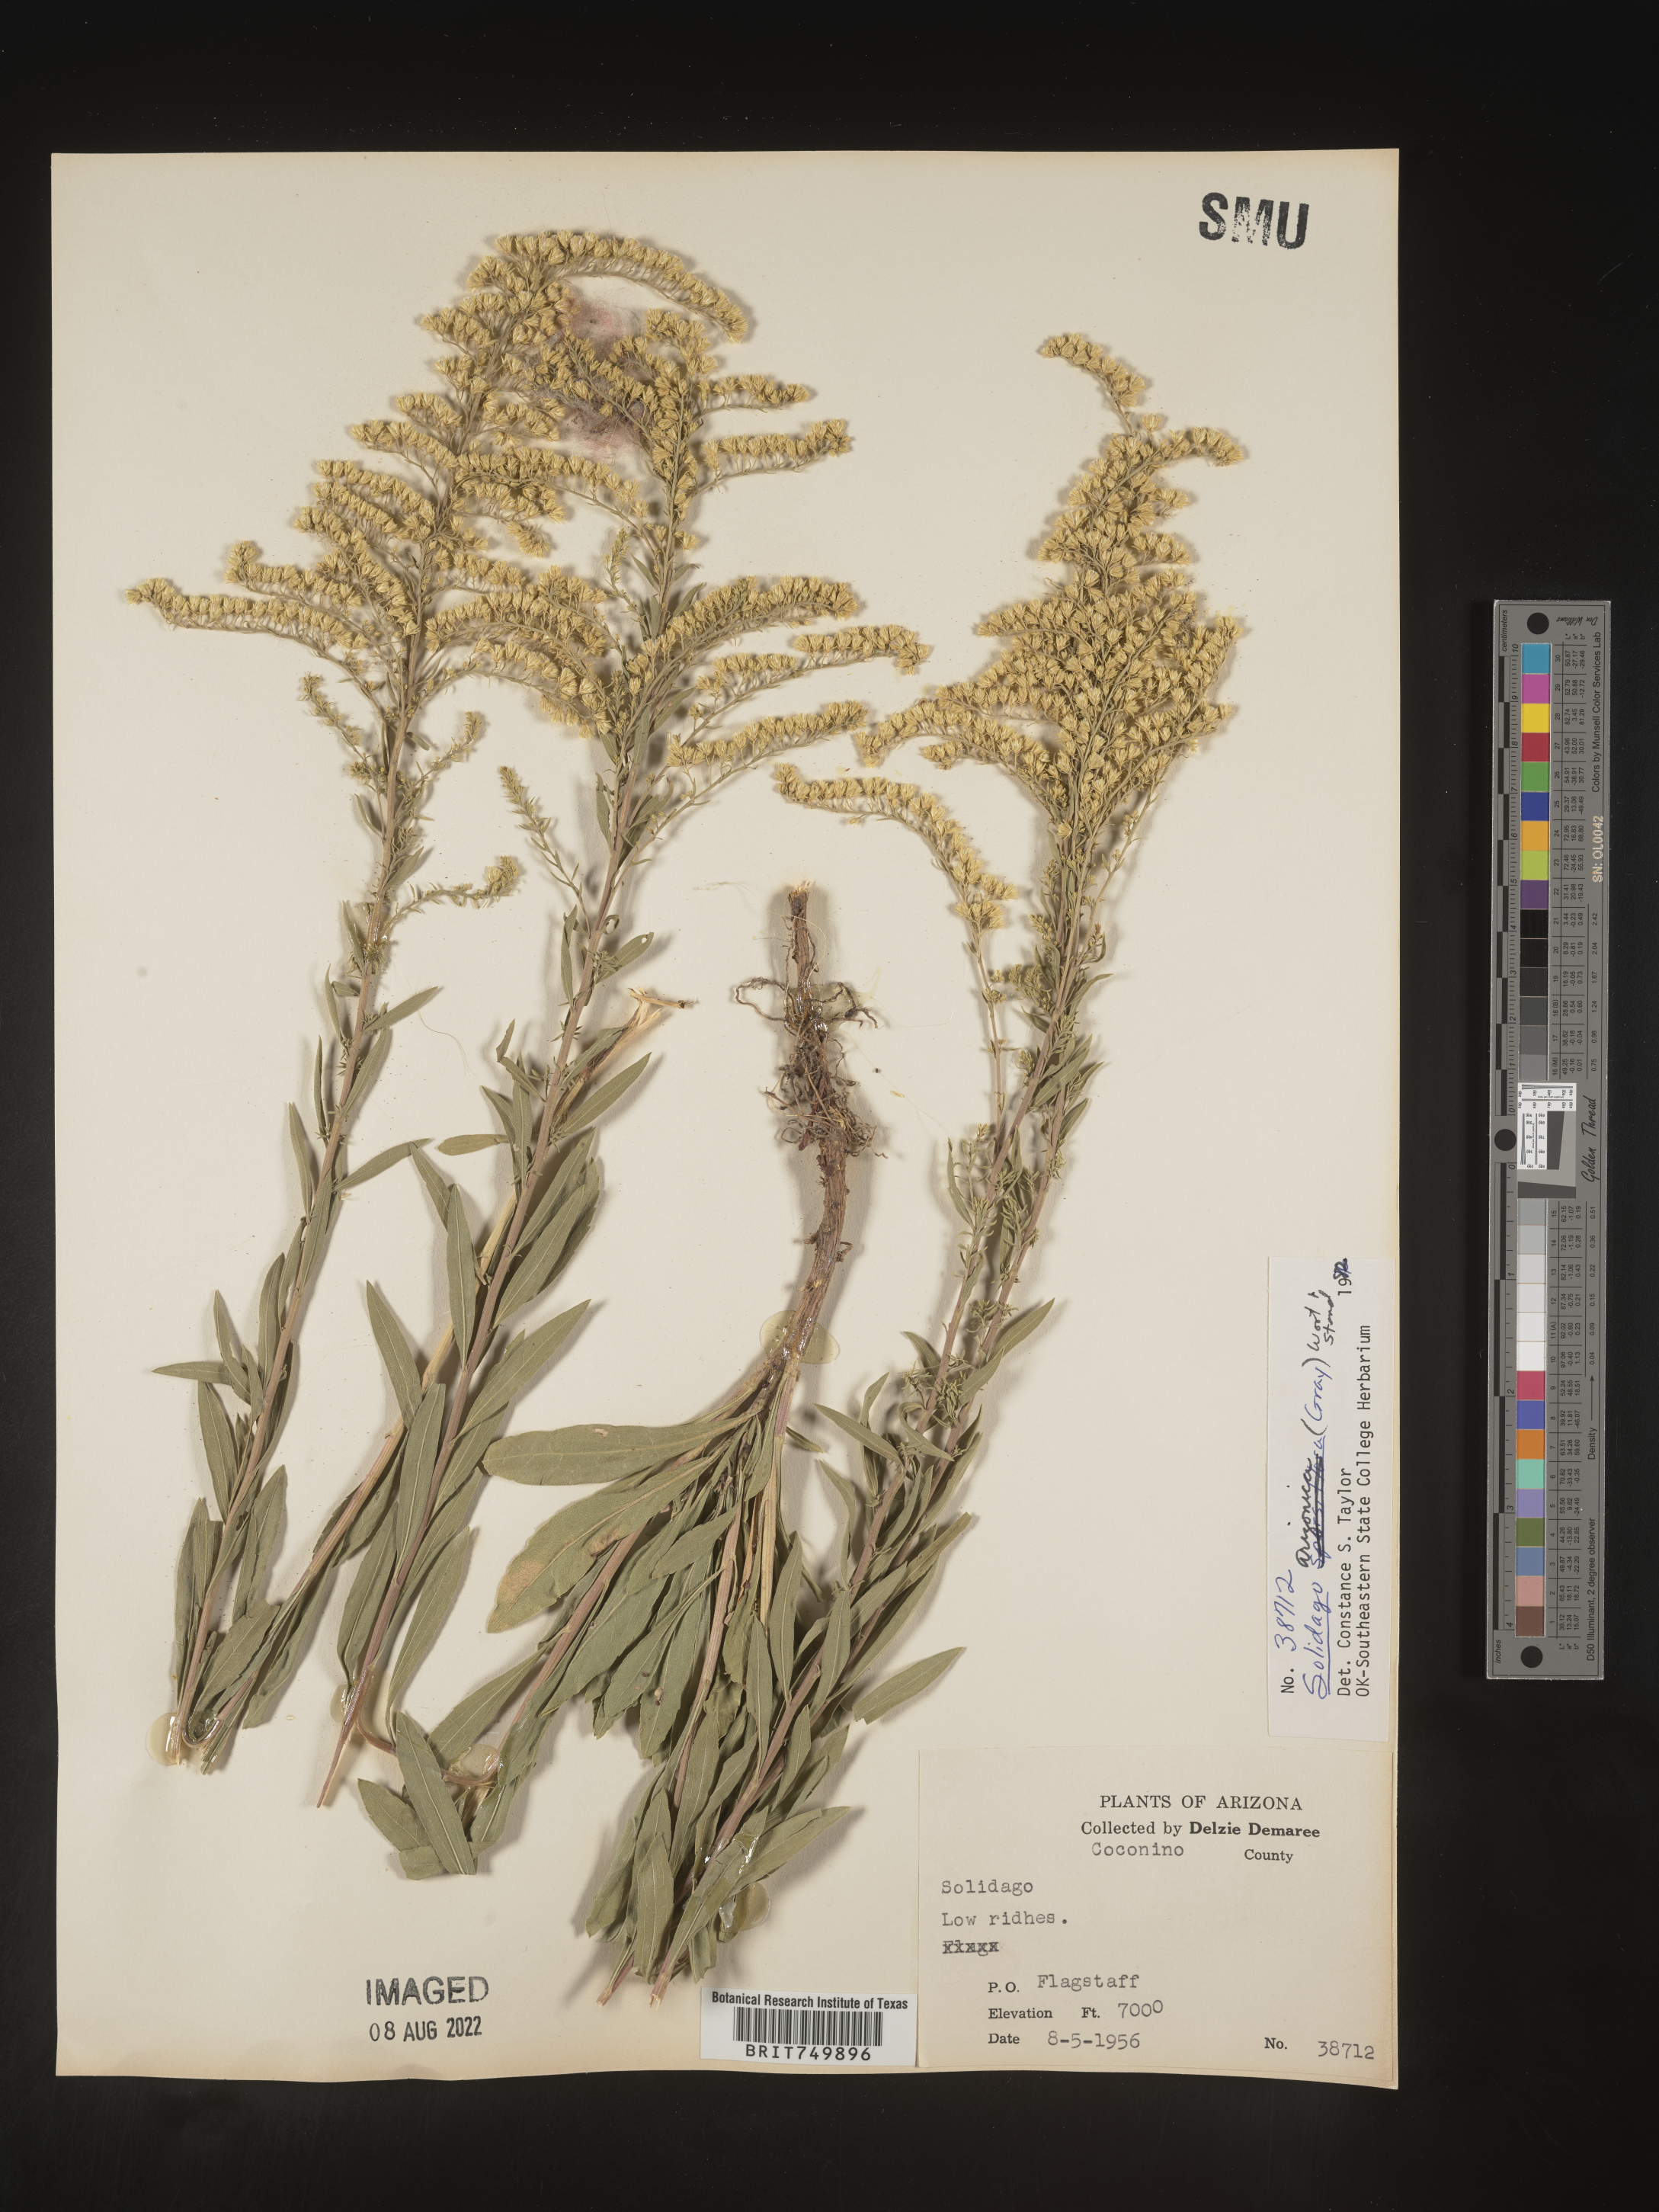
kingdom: Plantae
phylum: Tracheophyta
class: Magnoliopsida
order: Asterales
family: Asteraceae
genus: Solidago
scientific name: Solidago velutina
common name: Three-nerve goldenrod
